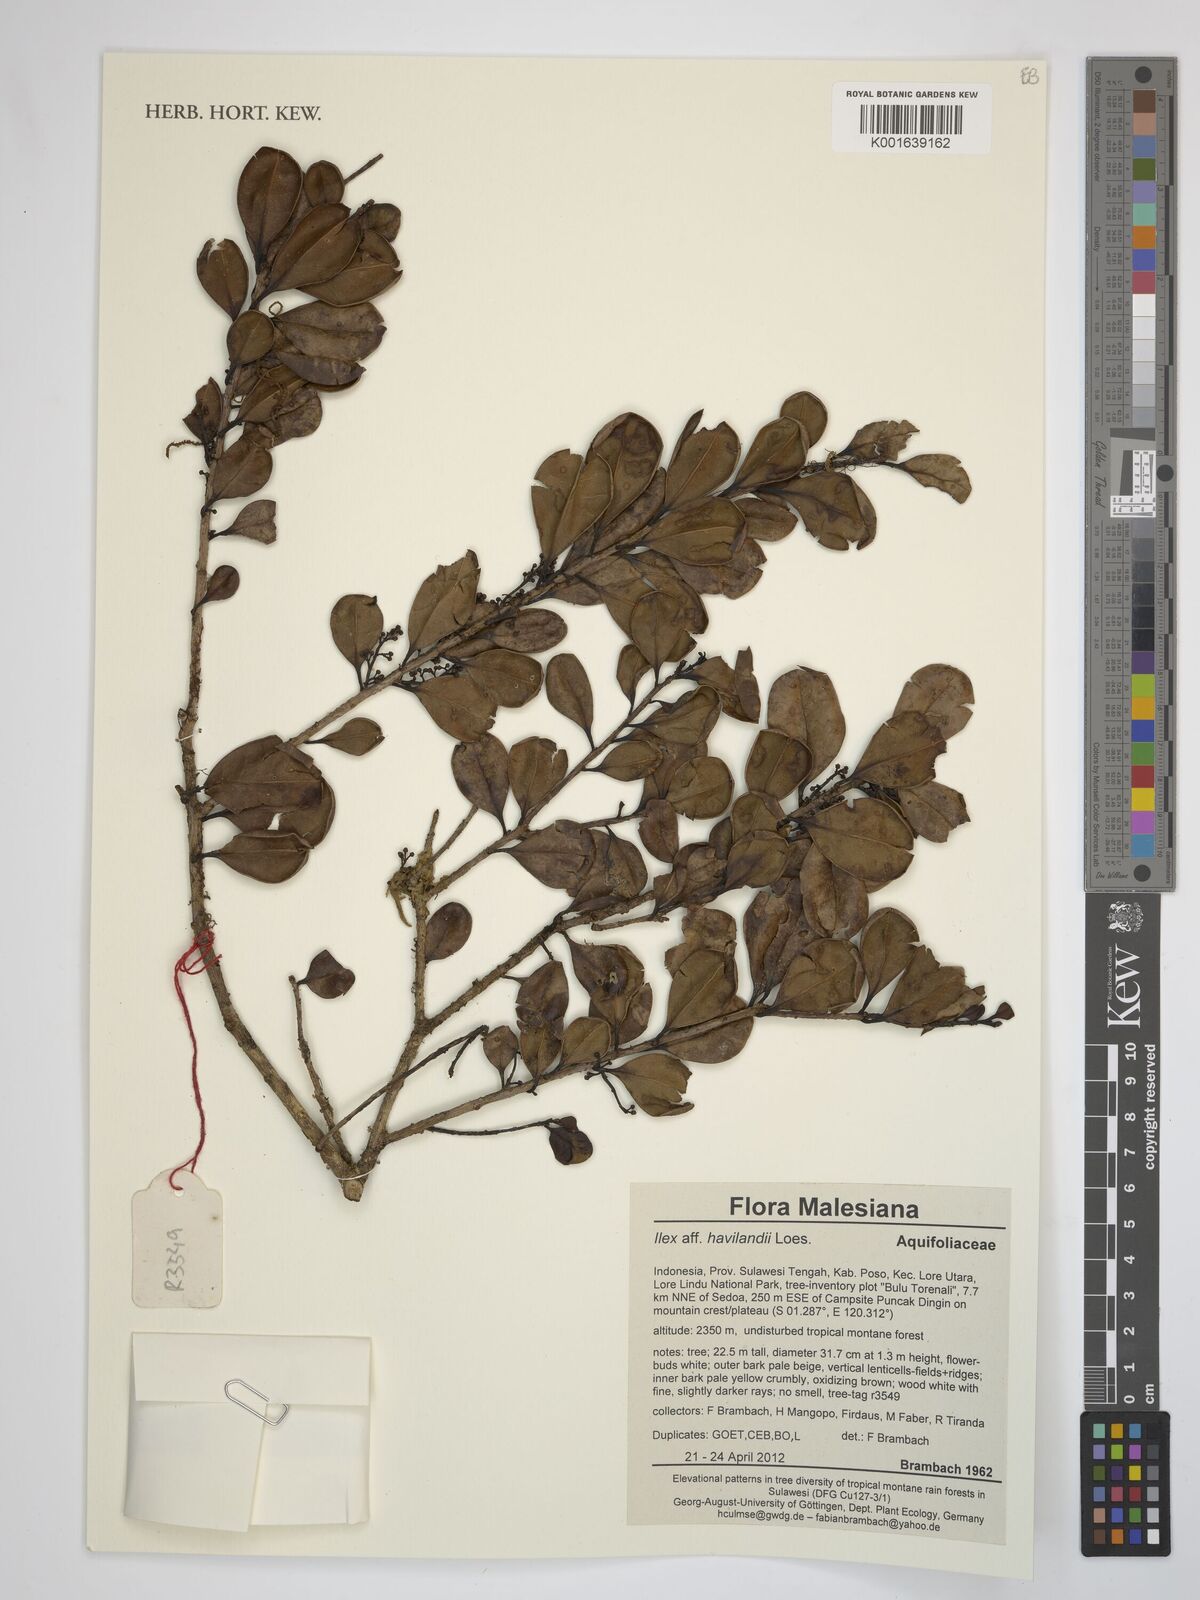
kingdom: Plantae
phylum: Tracheophyta
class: Magnoliopsida
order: Aquifoliales
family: Aquifoliaceae
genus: Ilex
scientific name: Ilex havilandii
